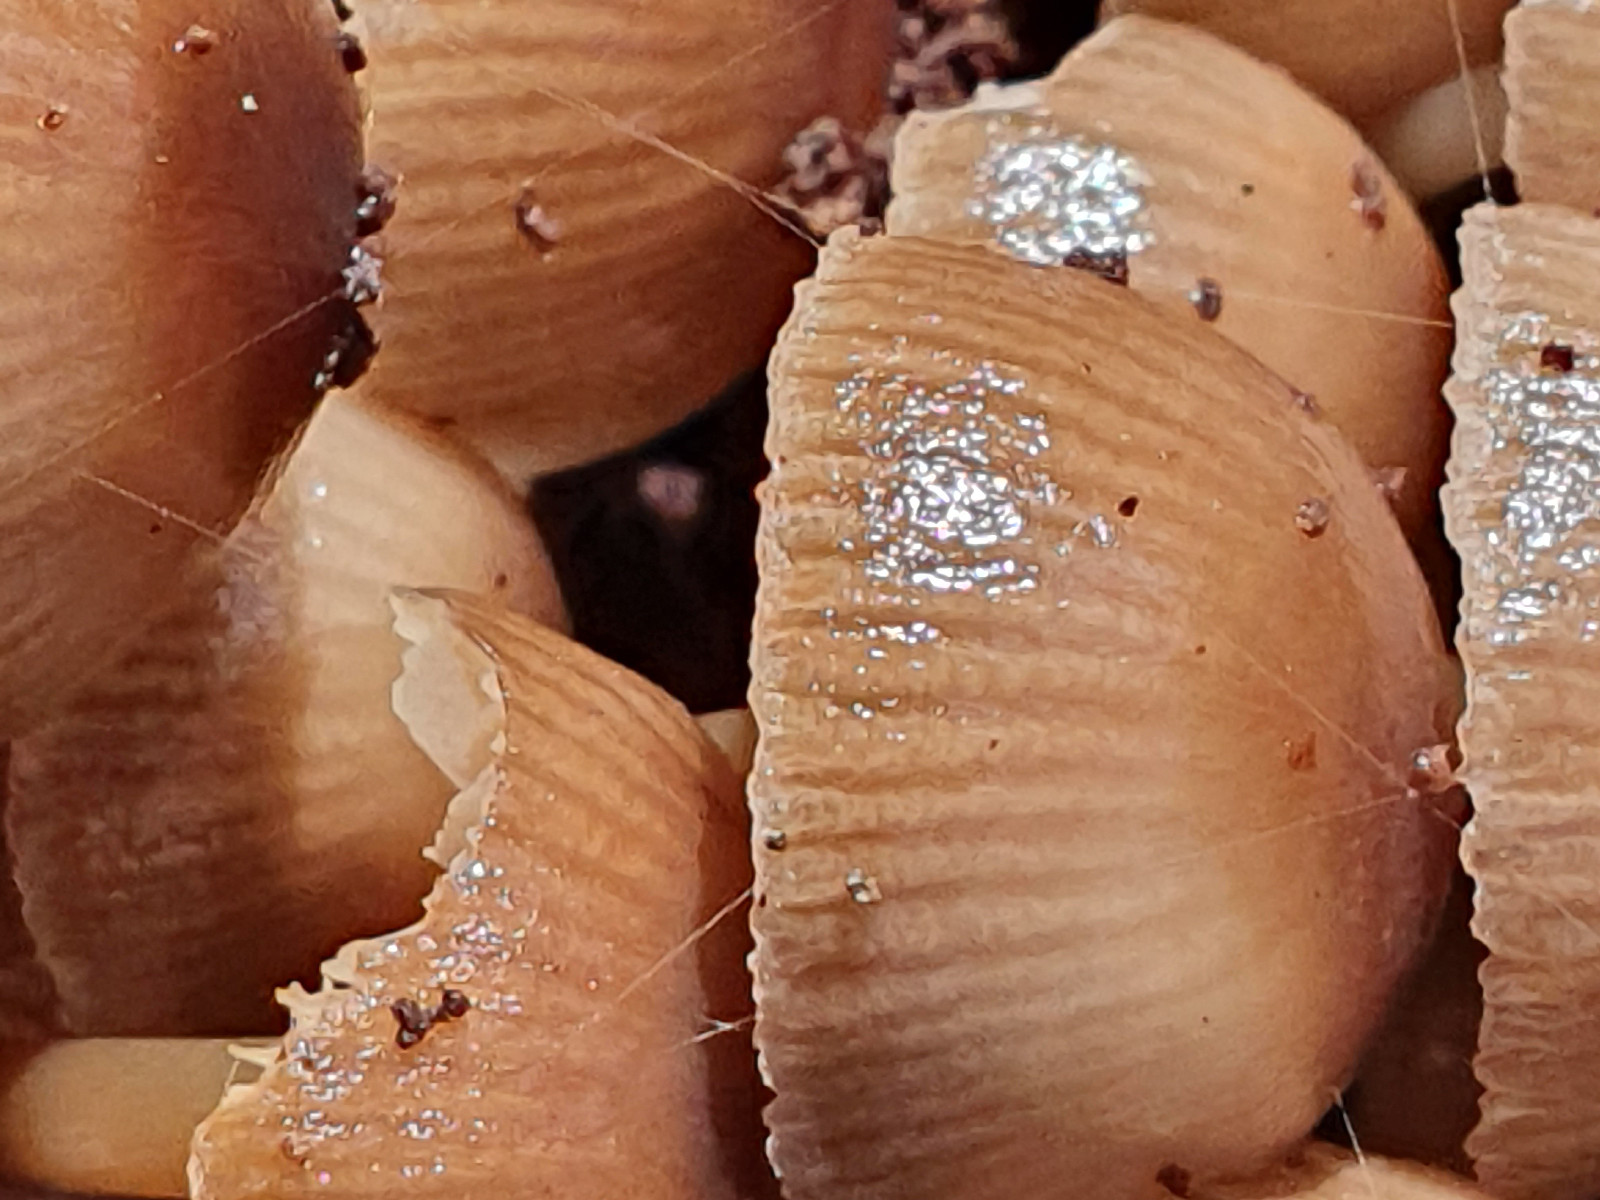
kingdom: Fungi
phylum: Basidiomycota
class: Agaricomycetes
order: Agaricales
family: Mycenaceae
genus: Mycena
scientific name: Mycena tintinnabulum
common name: vinter-huesvamp
